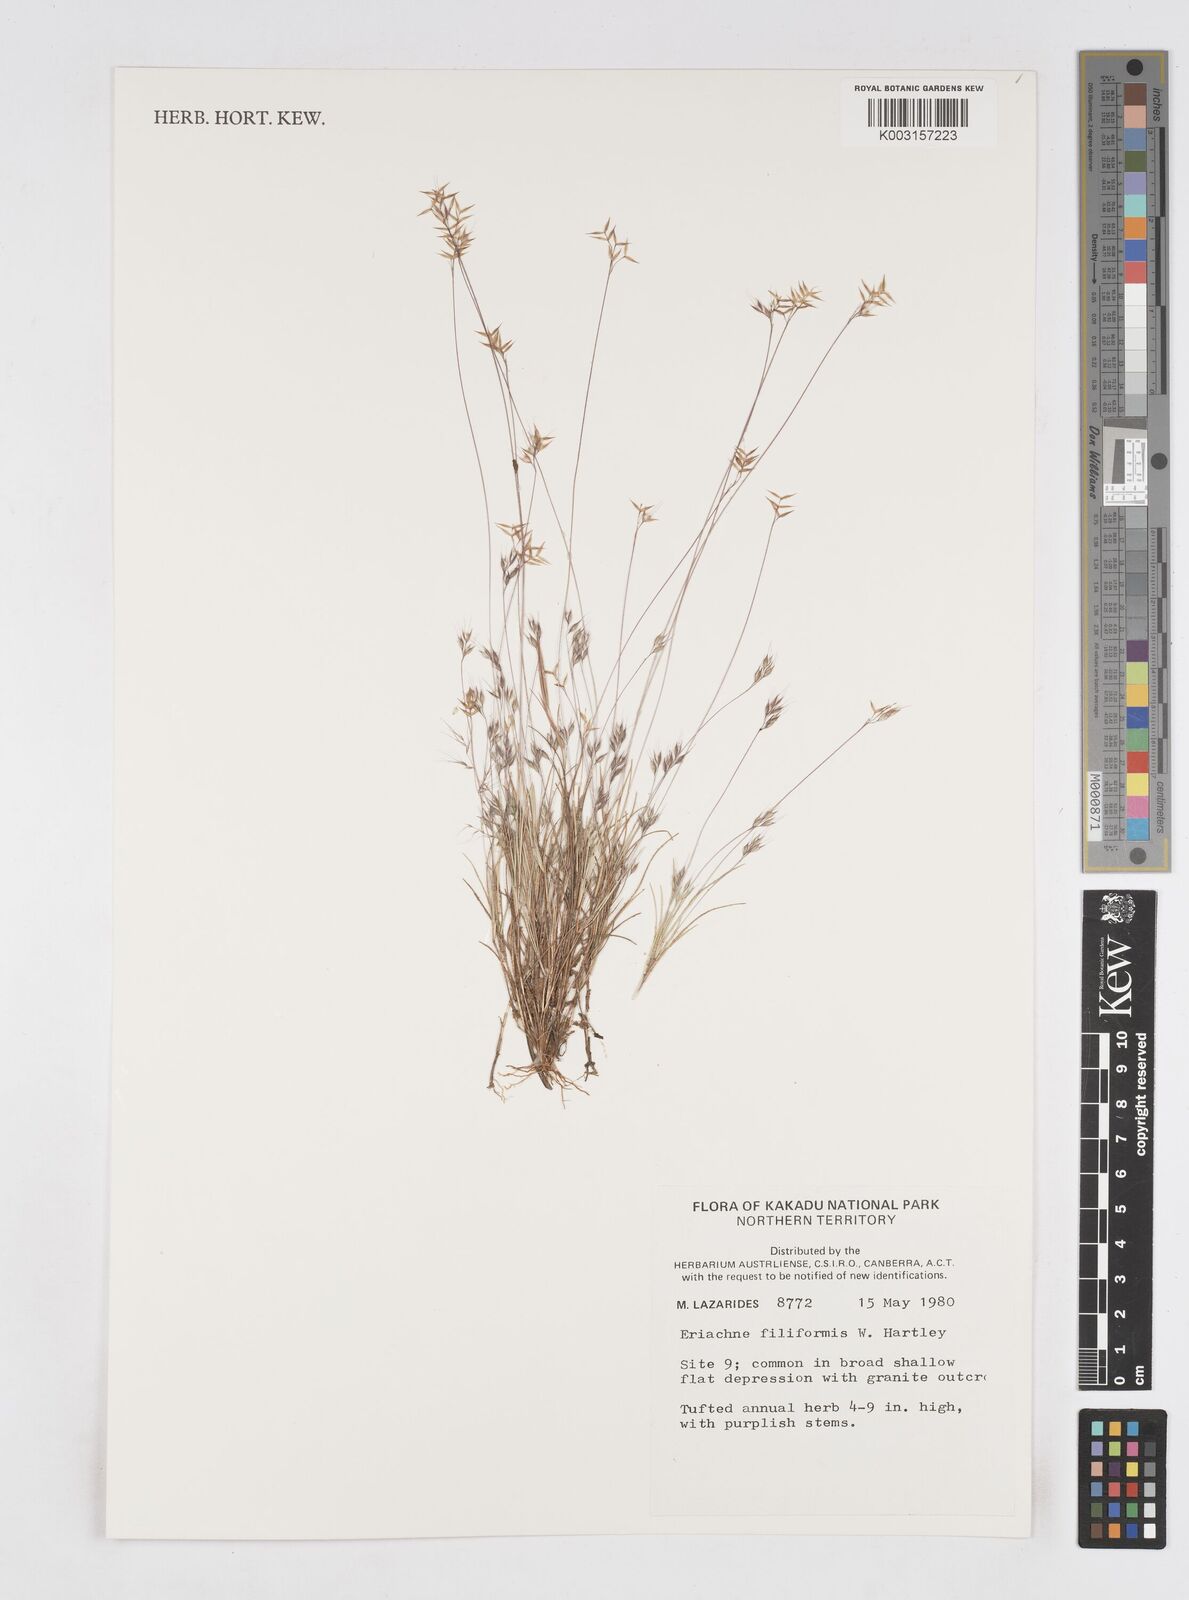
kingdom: Plantae
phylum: Tracheophyta
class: Liliopsida
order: Poales
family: Poaceae
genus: Eriachne
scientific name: Eriachne filiformis
